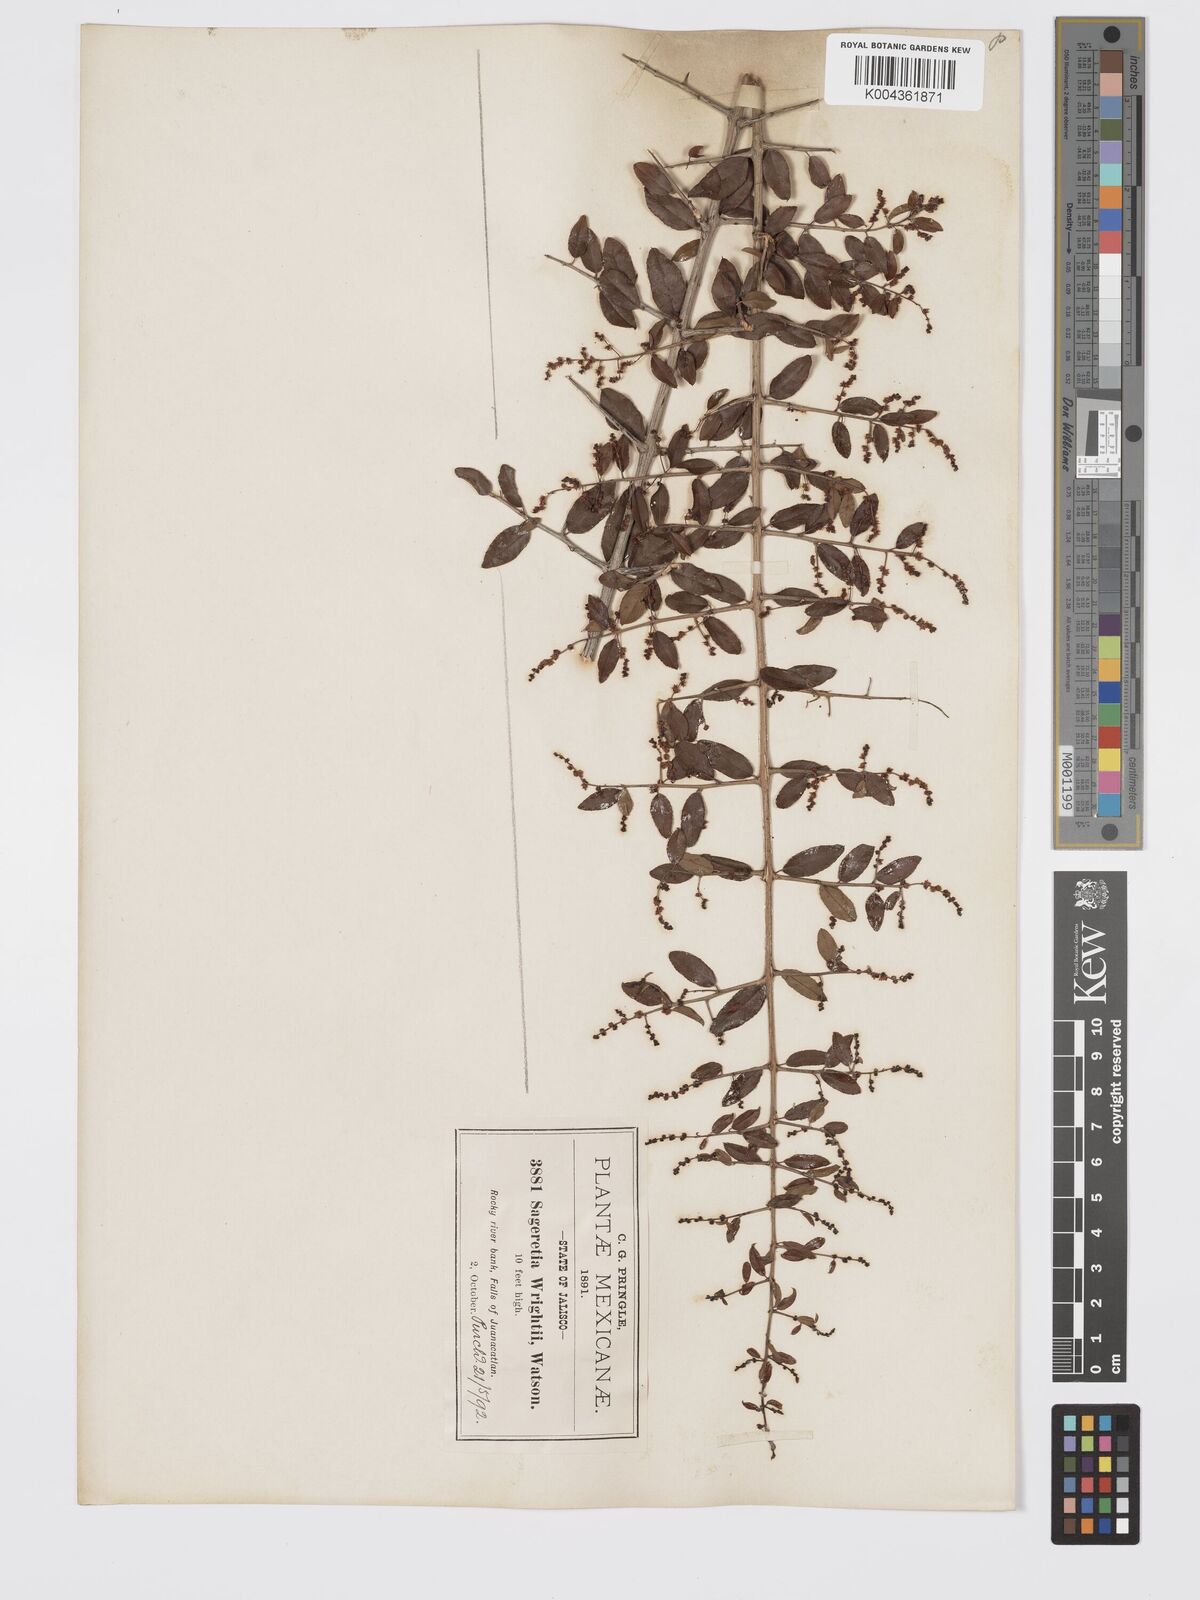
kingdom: Plantae
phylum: Tracheophyta
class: Magnoliopsida
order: Rosales
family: Rhamnaceae
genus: Sageretia
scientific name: Sageretia wrightii
